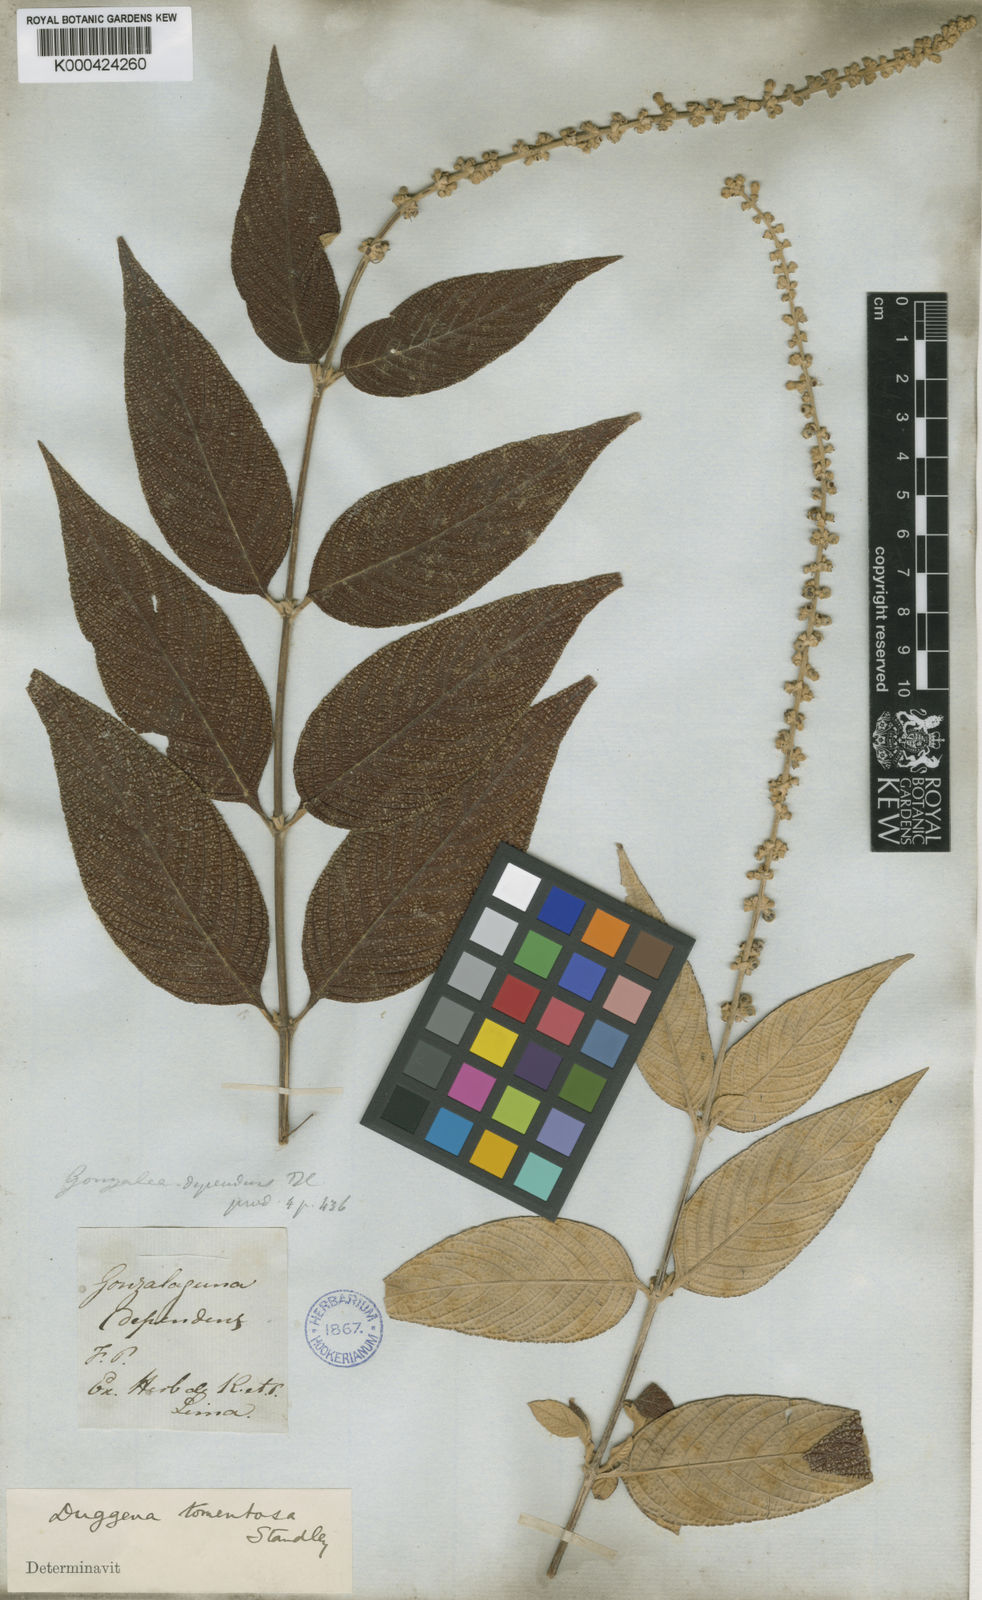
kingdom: Plantae
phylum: Tracheophyta
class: Magnoliopsida
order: Gentianales
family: Rubiaceae
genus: Gonzalagunia
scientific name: Gonzalagunia
